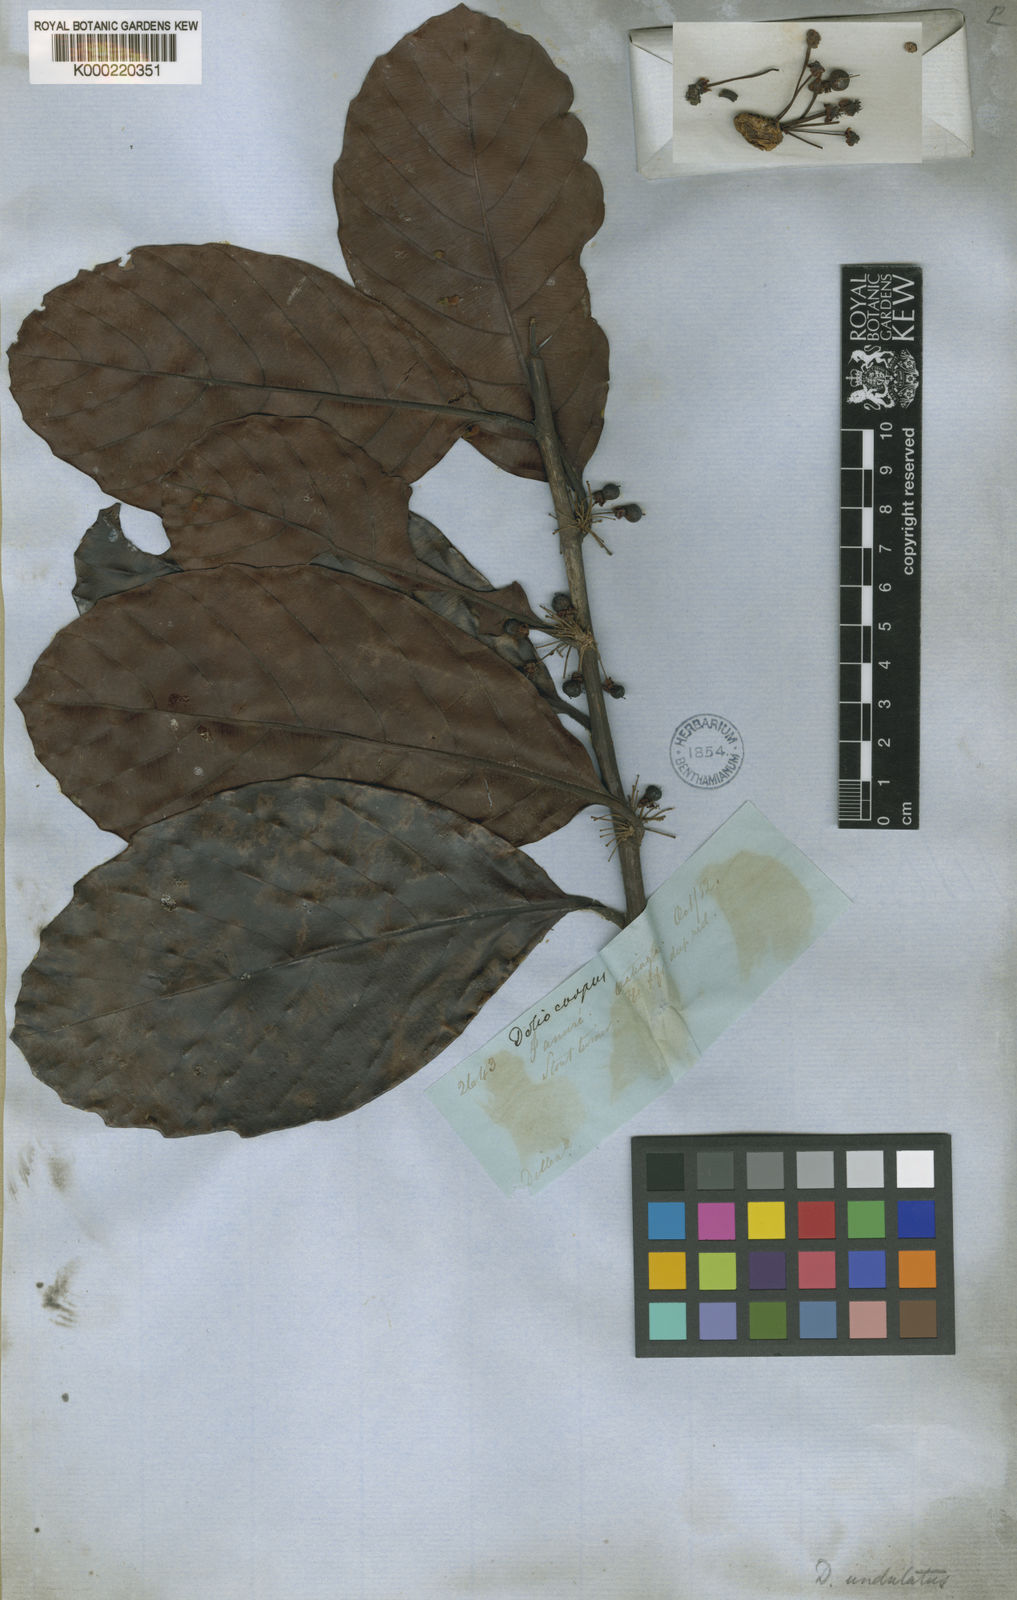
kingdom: Plantae
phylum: Tracheophyta
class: Magnoliopsida
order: Dilleniales
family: Dilleniaceae
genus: Doliocarpus
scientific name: Doliocarpus dentatus
